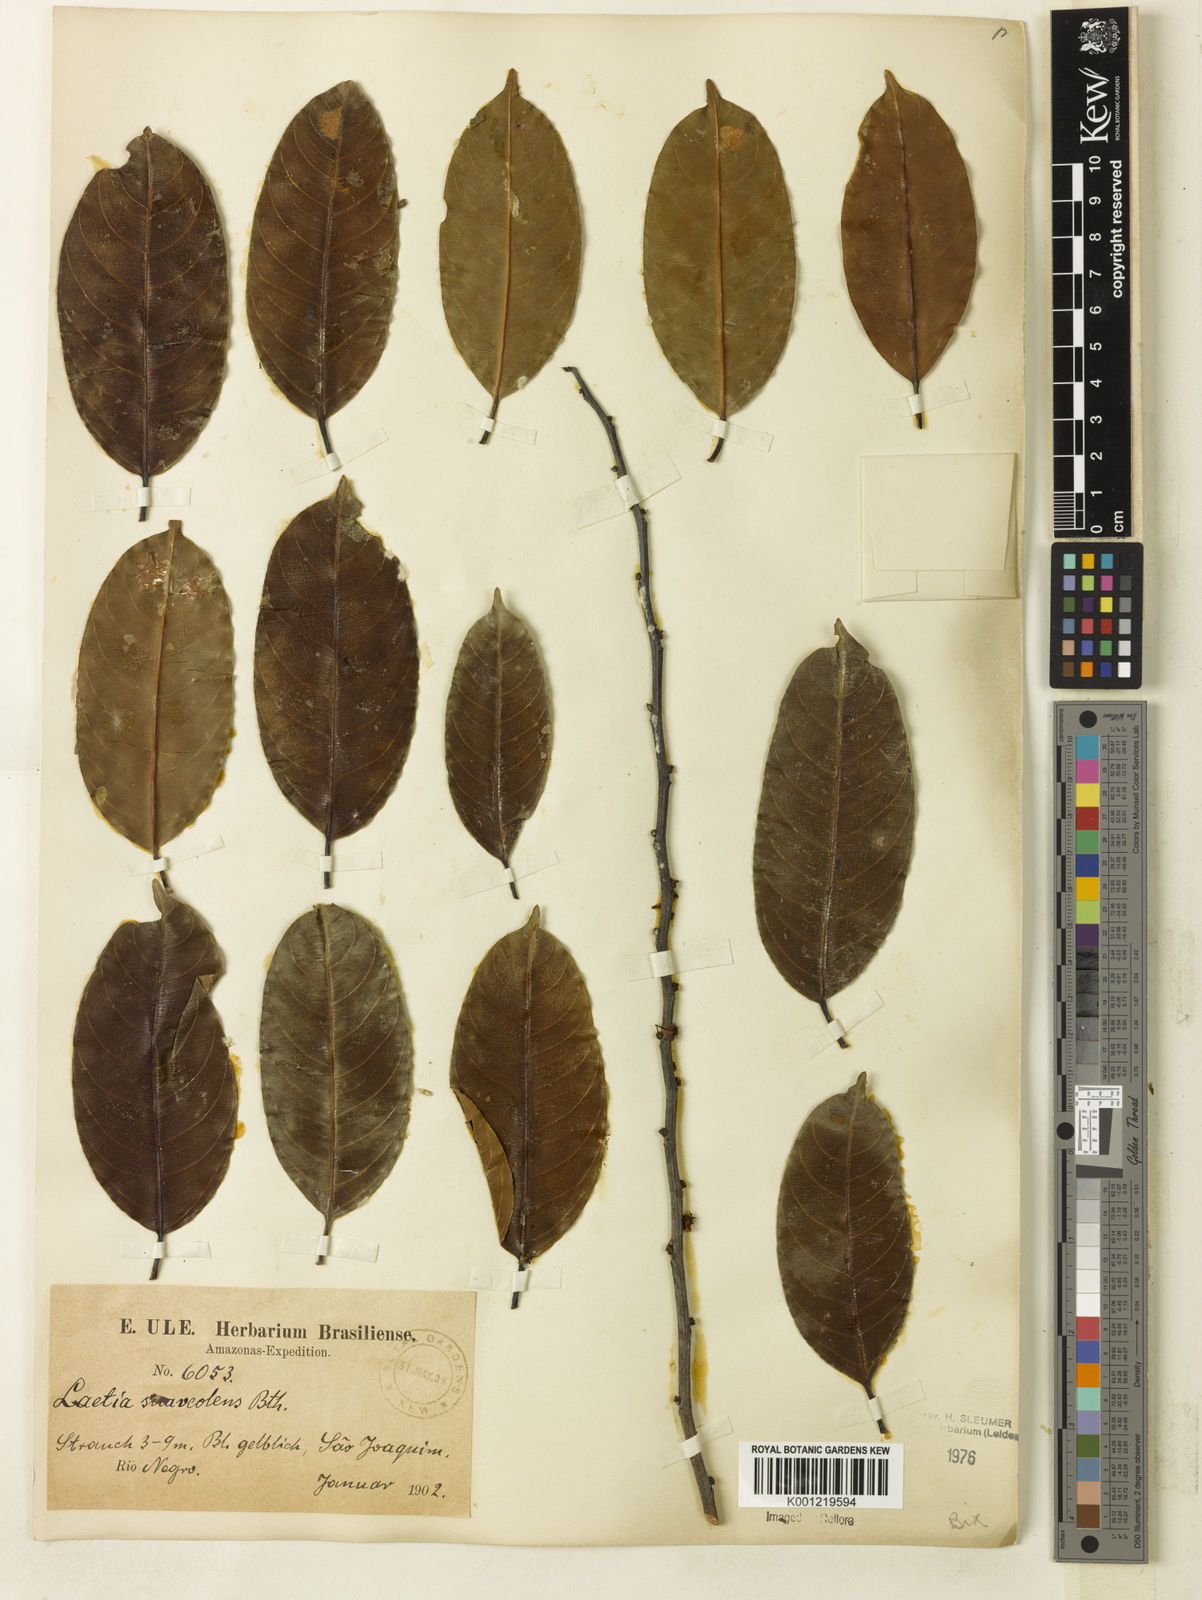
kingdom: Plantae
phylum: Tracheophyta
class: Magnoliopsida
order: Malpighiales
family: Salicaceae
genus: Casearia
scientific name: Casearia suaveolens
